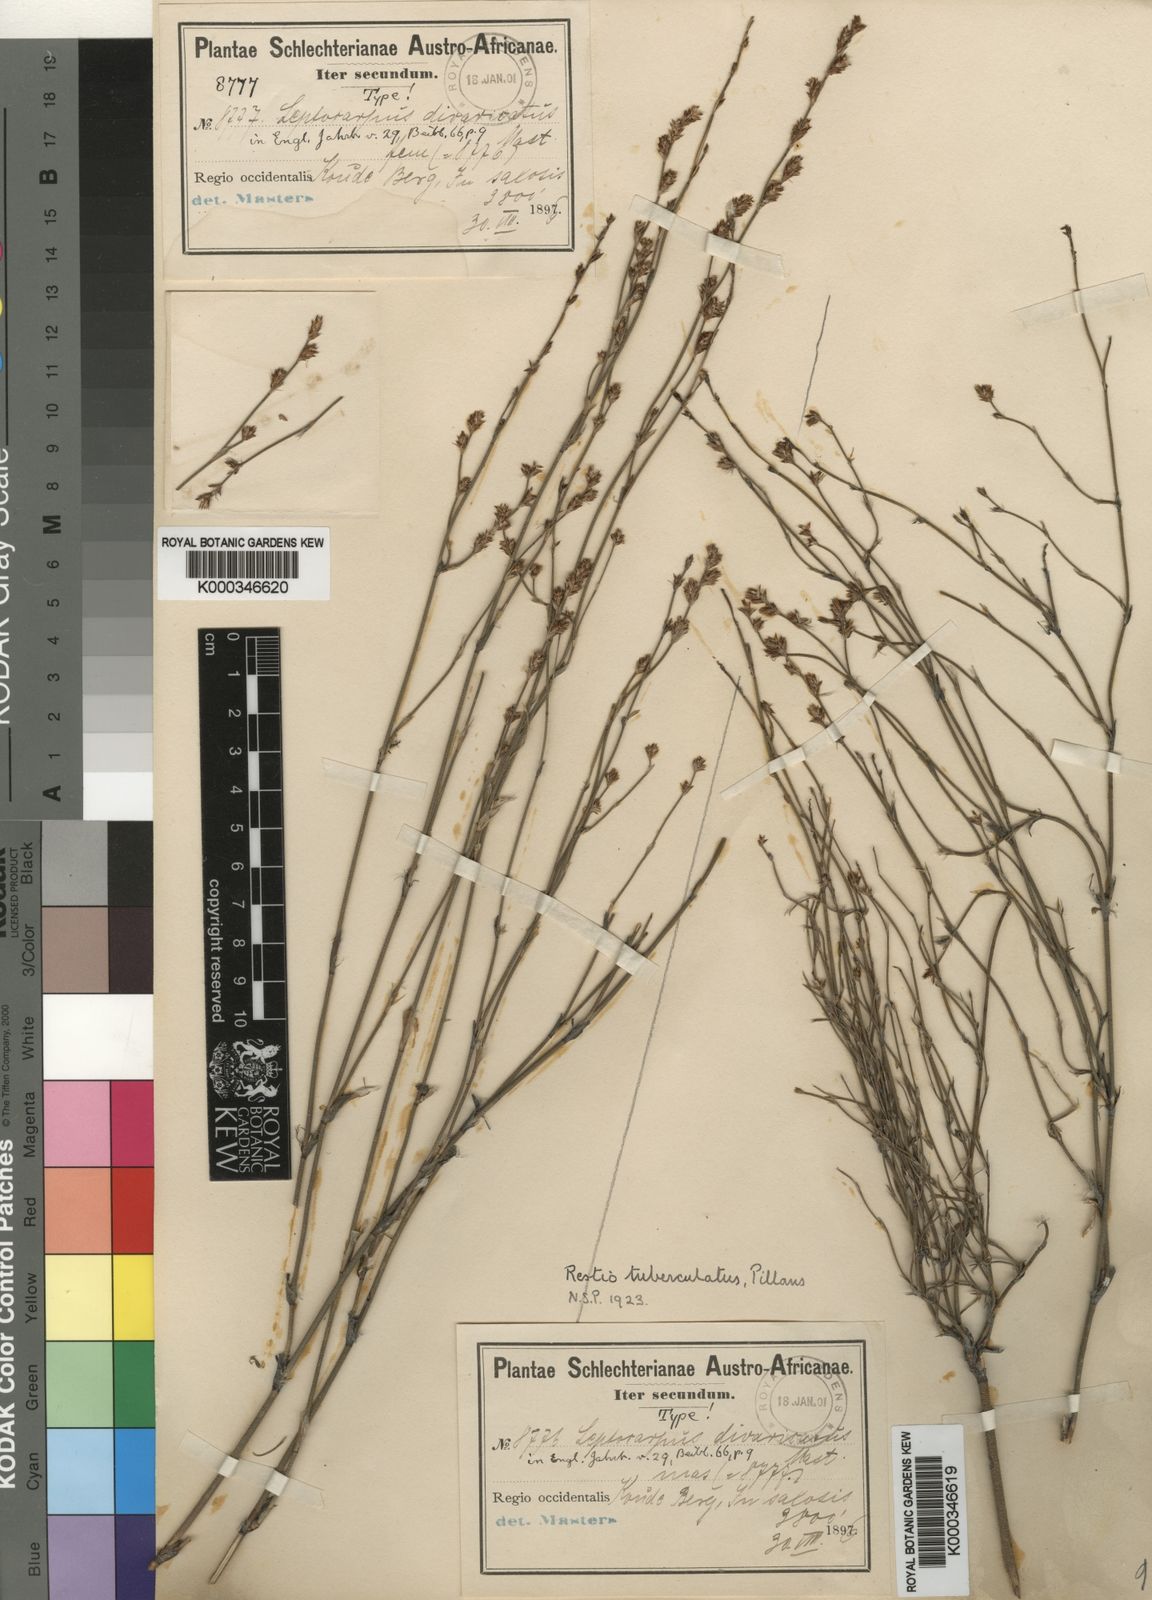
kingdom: Plantae
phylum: Tracheophyta
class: Liliopsida
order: Poales
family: Restionaceae
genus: Restio
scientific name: Restio tuberculatus
